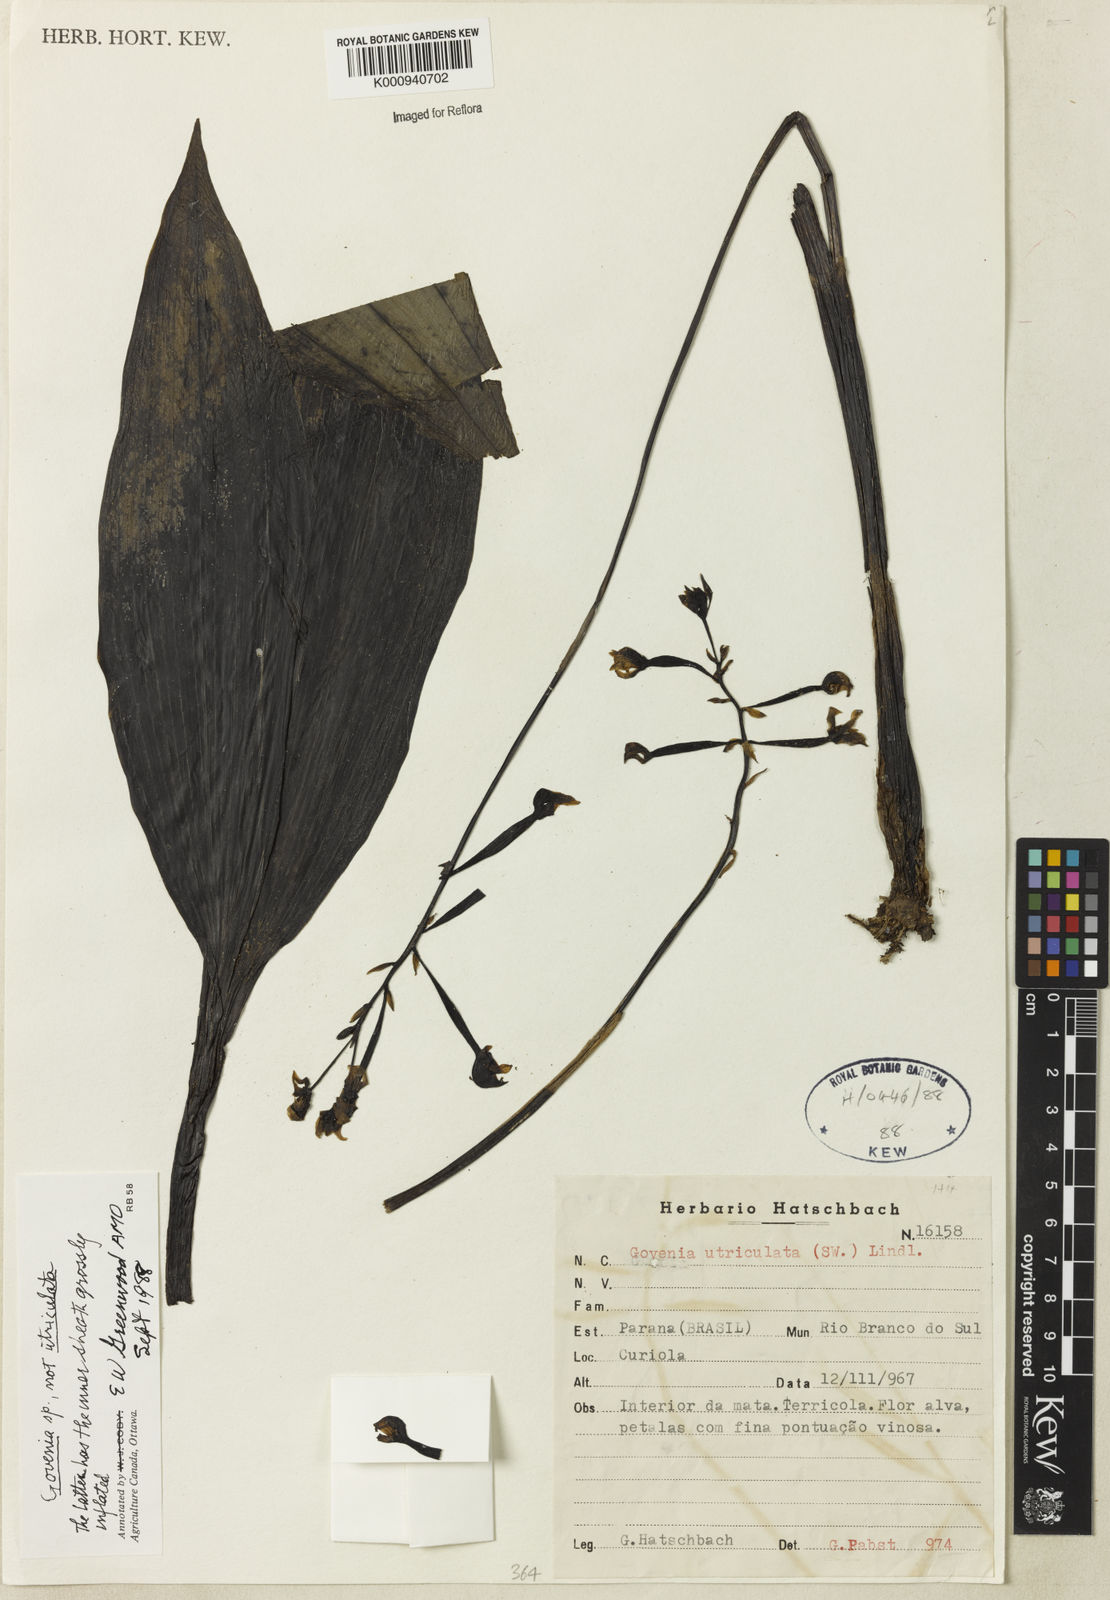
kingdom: Plantae
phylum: Tracheophyta
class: Liliopsida
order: Asparagales
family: Orchidaceae
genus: Govenia
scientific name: Govenia utriculata
